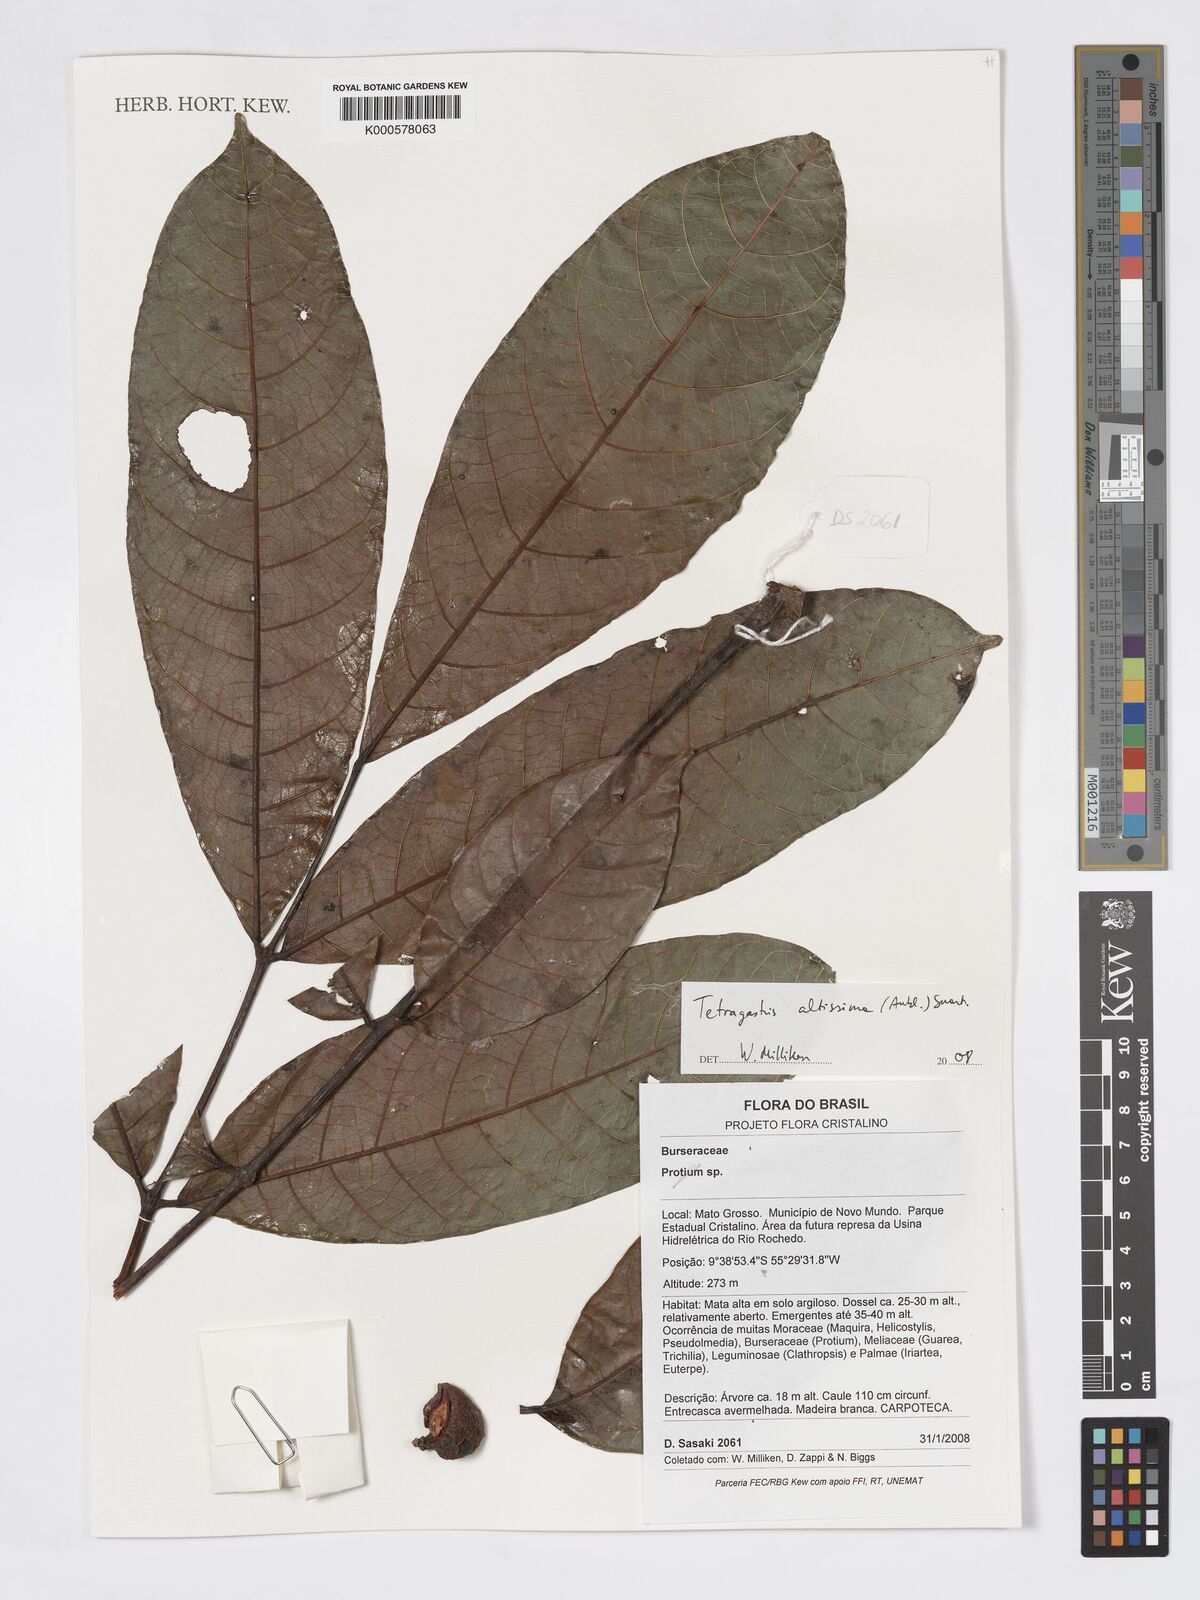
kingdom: Plantae
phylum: Tracheophyta
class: Magnoliopsida
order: Sapindales
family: Burseraceae
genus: Tetragastris
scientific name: Tetragastris altissima
